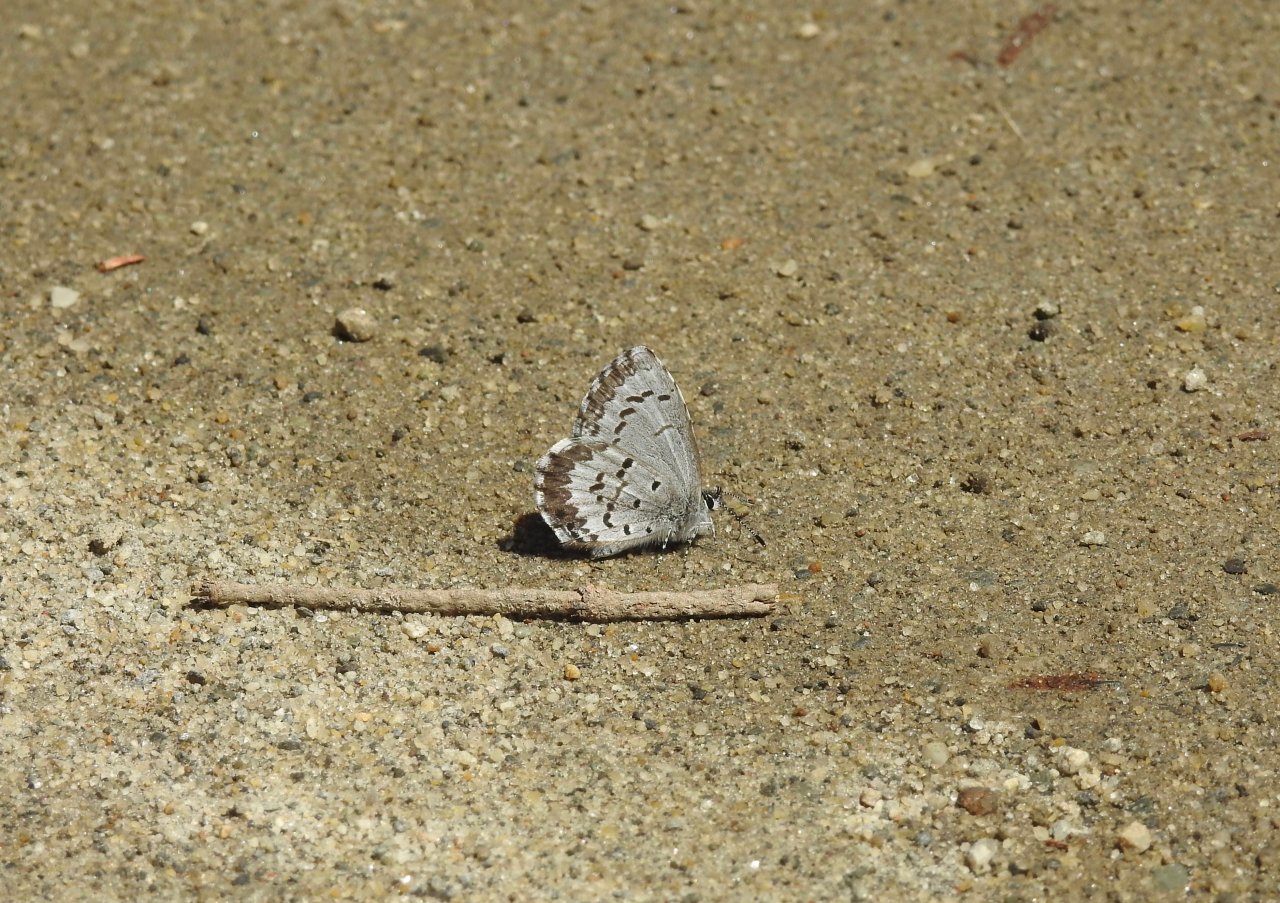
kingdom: Animalia
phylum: Arthropoda
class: Insecta
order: Lepidoptera
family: Lycaenidae
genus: Celastrina
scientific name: Celastrina lucia
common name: Northern Spring Azure
